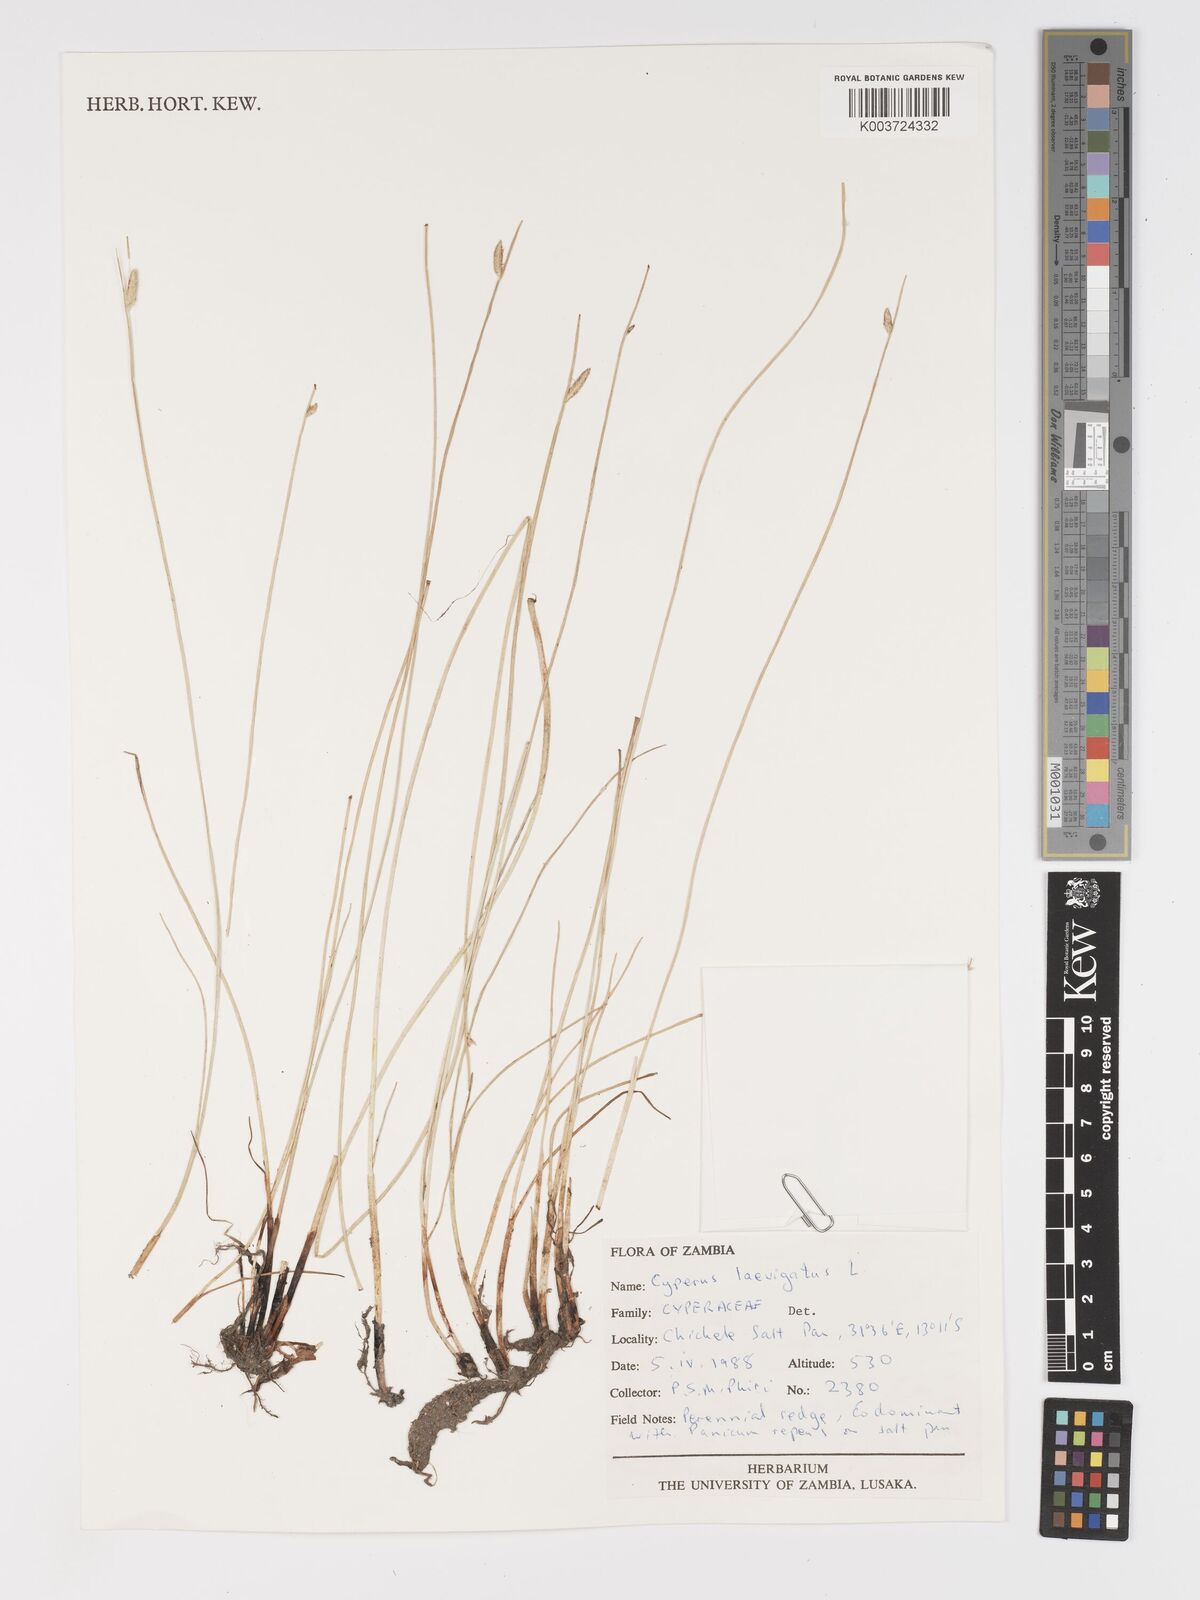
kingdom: Plantae
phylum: Tracheophyta
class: Liliopsida
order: Poales
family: Cyperaceae
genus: Cyperus
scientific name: Cyperus laevigatus
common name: Smooth flat sedge
